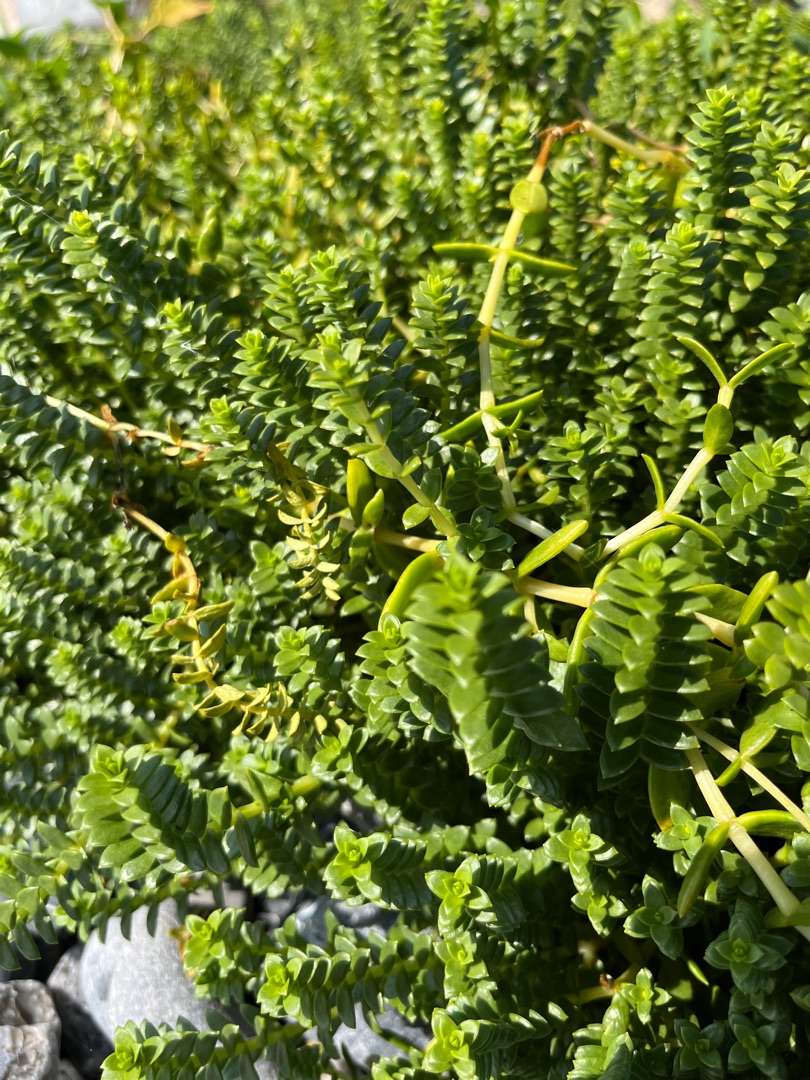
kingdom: Plantae
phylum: Tracheophyta
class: Magnoliopsida
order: Caryophyllales
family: Caryophyllaceae
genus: Honckenya
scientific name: Honckenya peploides
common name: Strandarve
